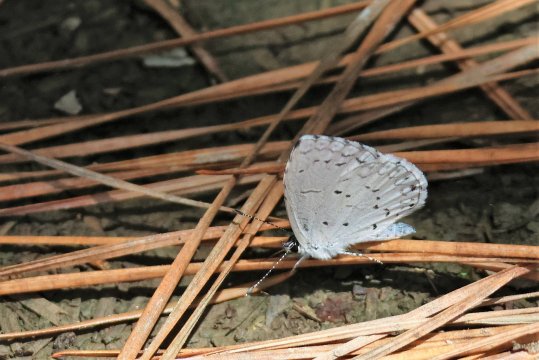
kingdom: Animalia
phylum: Arthropoda
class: Insecta
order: Lepidoptera
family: Lycaenidae
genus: Cyaniris
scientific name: Cyaniris neglecta
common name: Summer Azure
